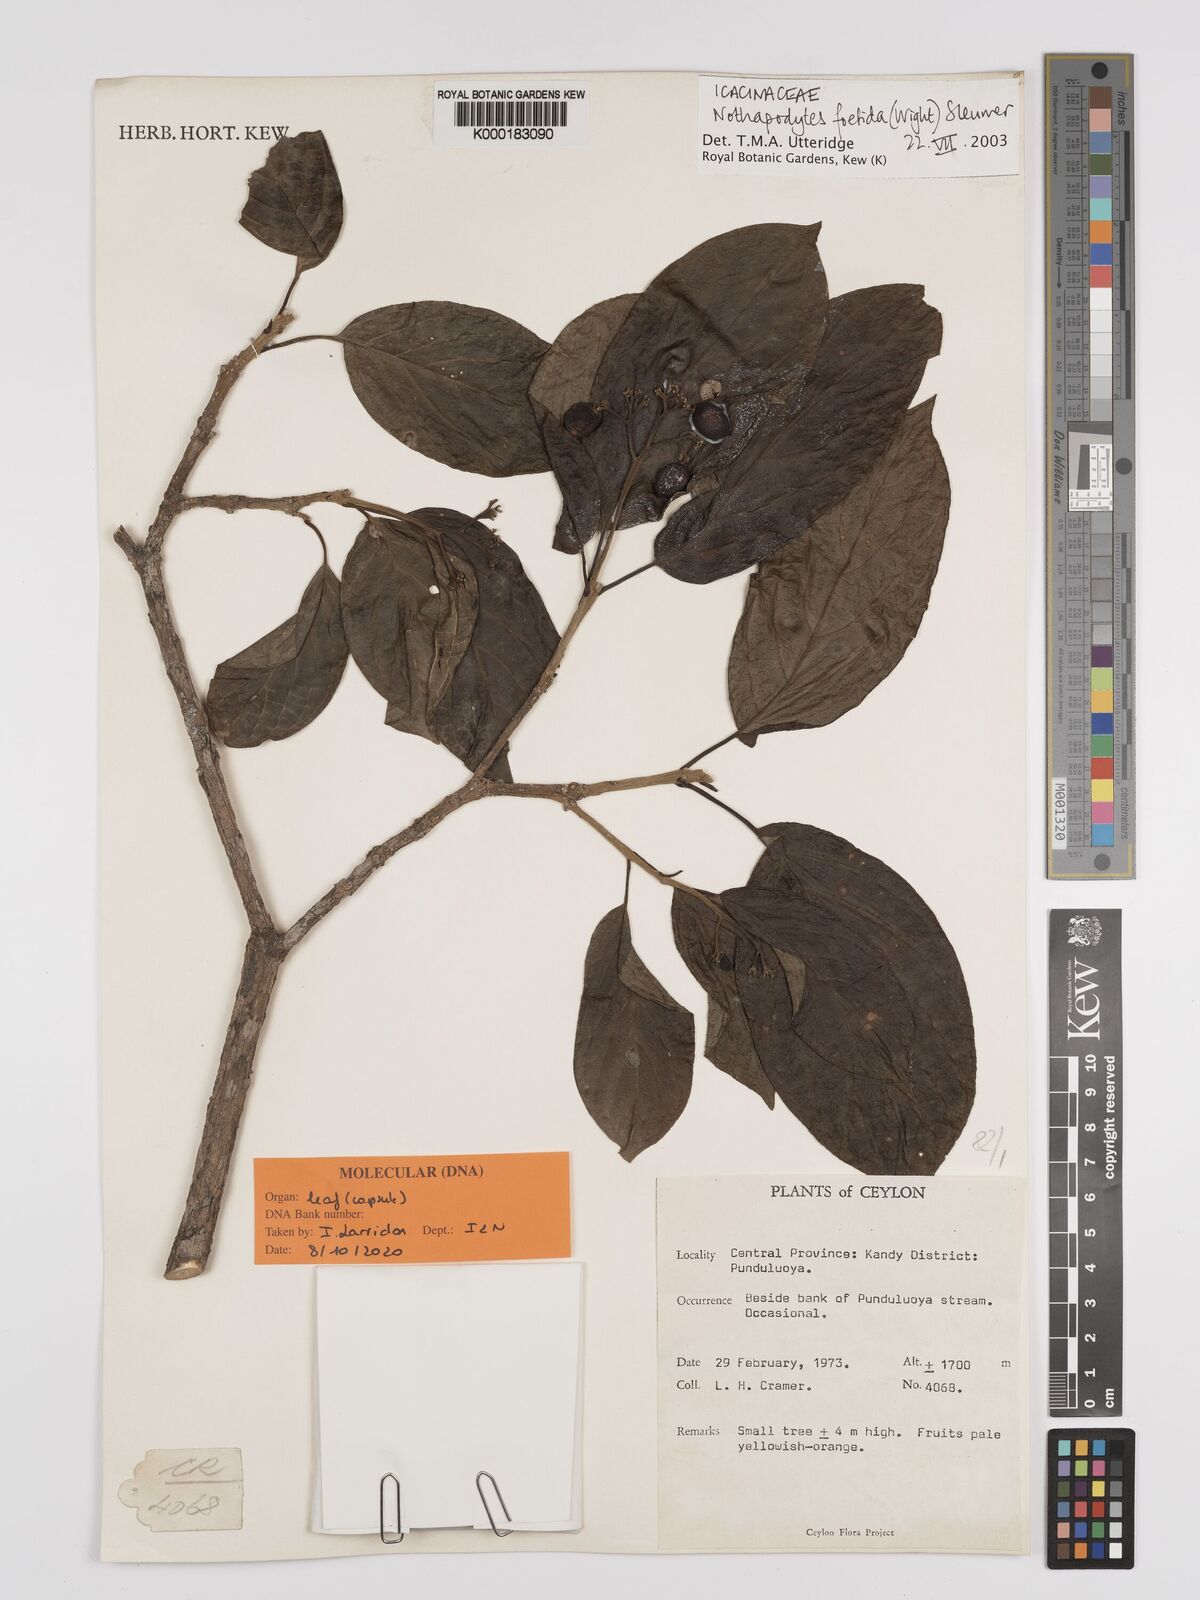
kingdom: Plantae
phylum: Tracheophyta
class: Magnoliopsida
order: Icacinales
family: Icacinaceae
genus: Nothapodytes
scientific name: Nothapodytes nimmoniana
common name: Nothapodytes
